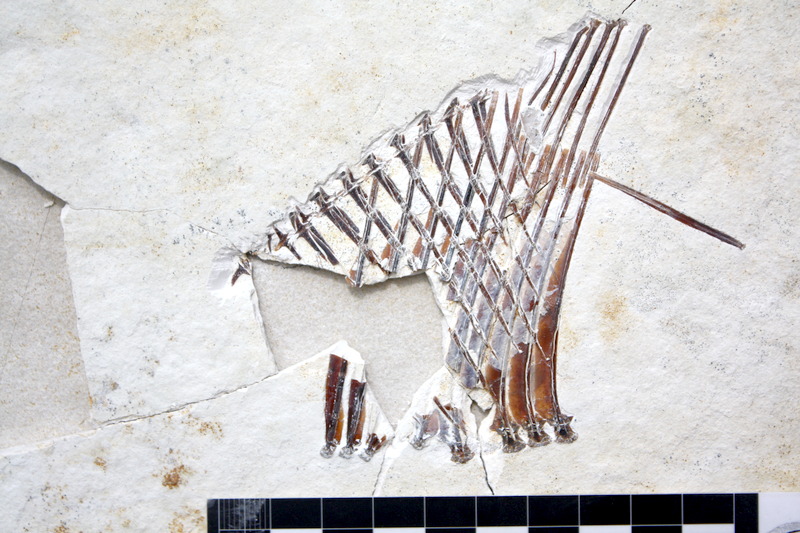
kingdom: Animalia
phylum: Chordata
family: Pycnodontidae
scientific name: Pycnodontidae
